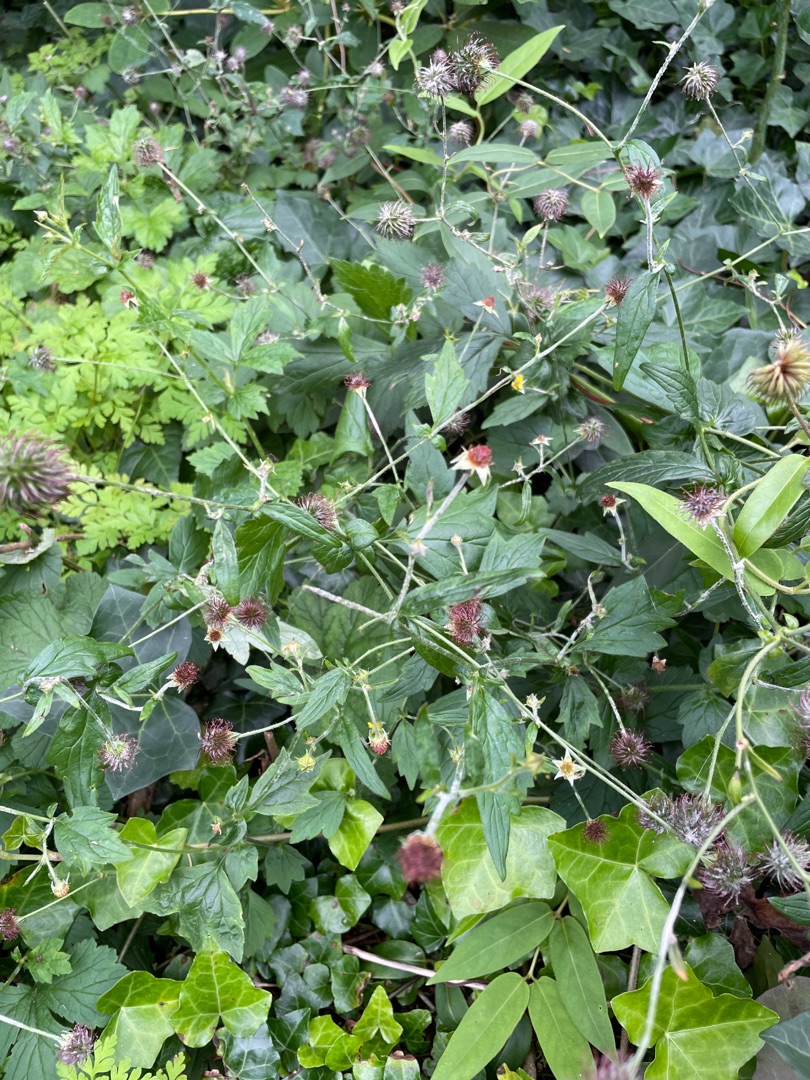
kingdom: Plantae
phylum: Tracheophyta
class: Magnoliopsida
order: Rosales
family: Rosaceae
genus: Geum
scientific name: Geum urbanum
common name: Feber-nellikerod
